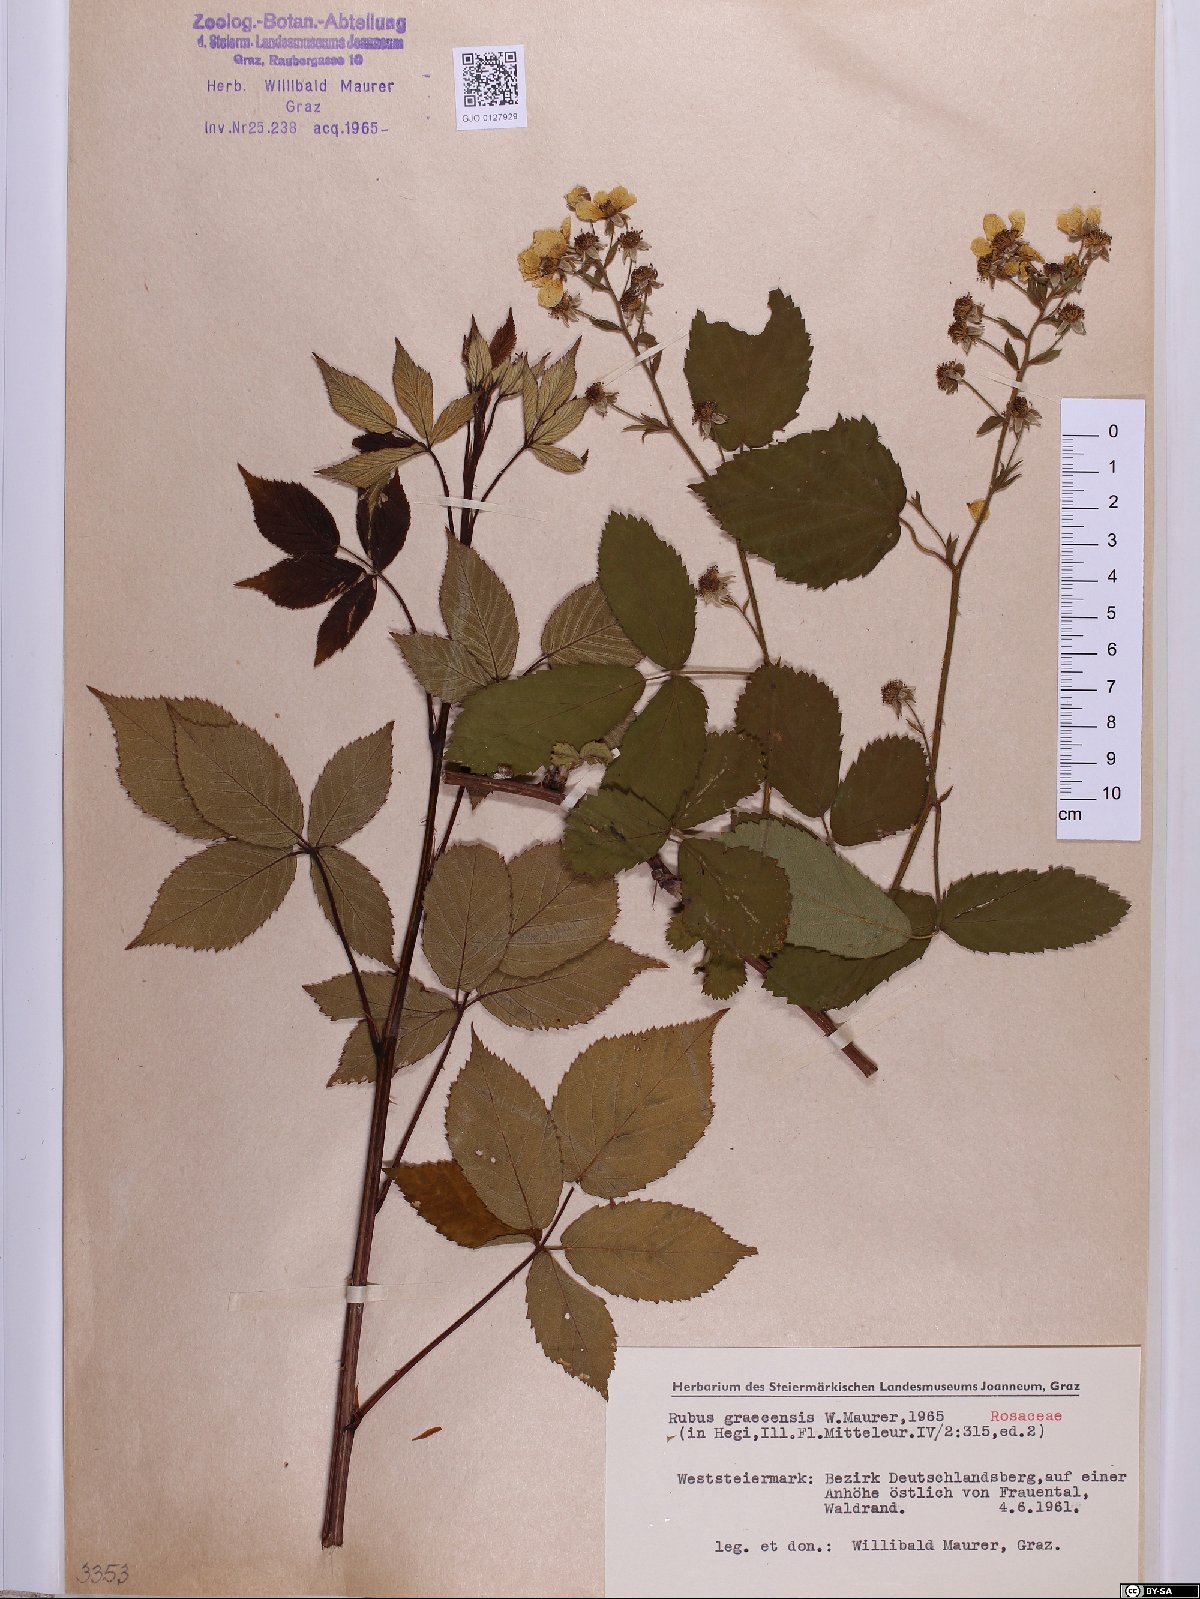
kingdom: Plantae
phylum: Tracheophyta
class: Magnoliopsida
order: Rosales
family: Rosaceae
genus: Rubus
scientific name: Rubus graecensis
